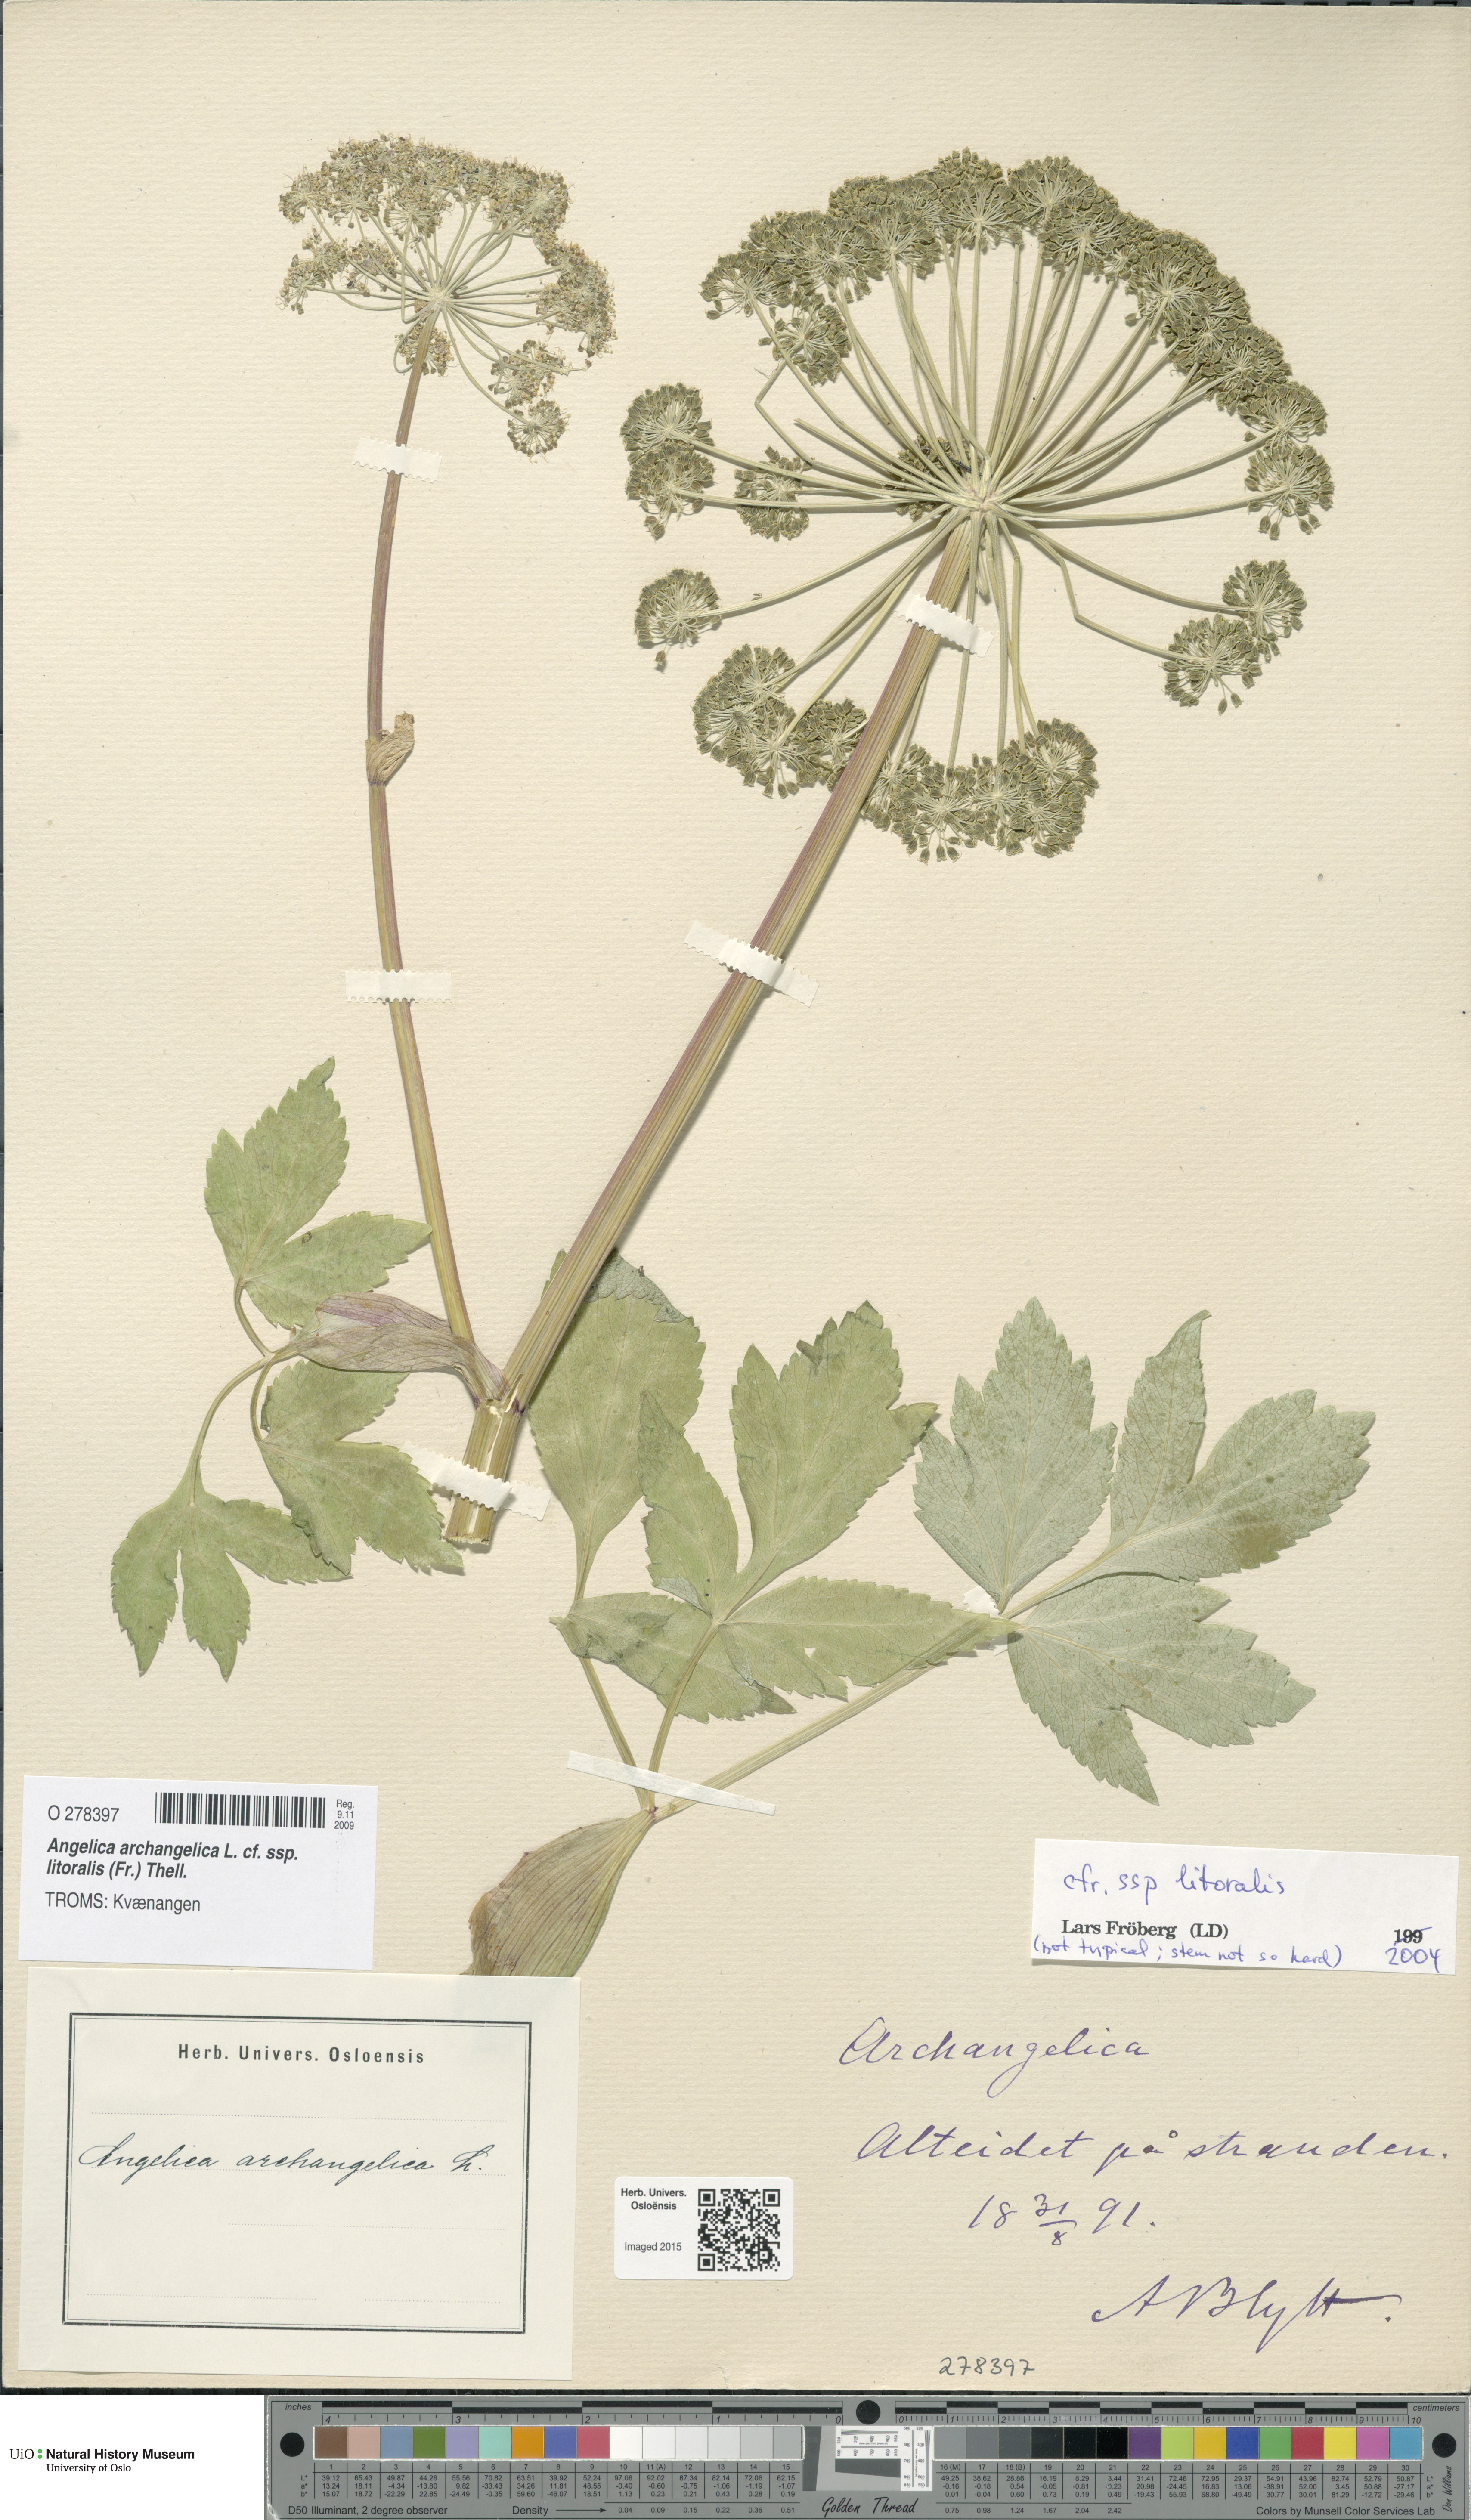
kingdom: Plantae
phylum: Tracheophyta
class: Magnoliopsida
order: Apiales
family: Apiaceae
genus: Angelica
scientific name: Angelica archangelica
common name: Garden angelica
